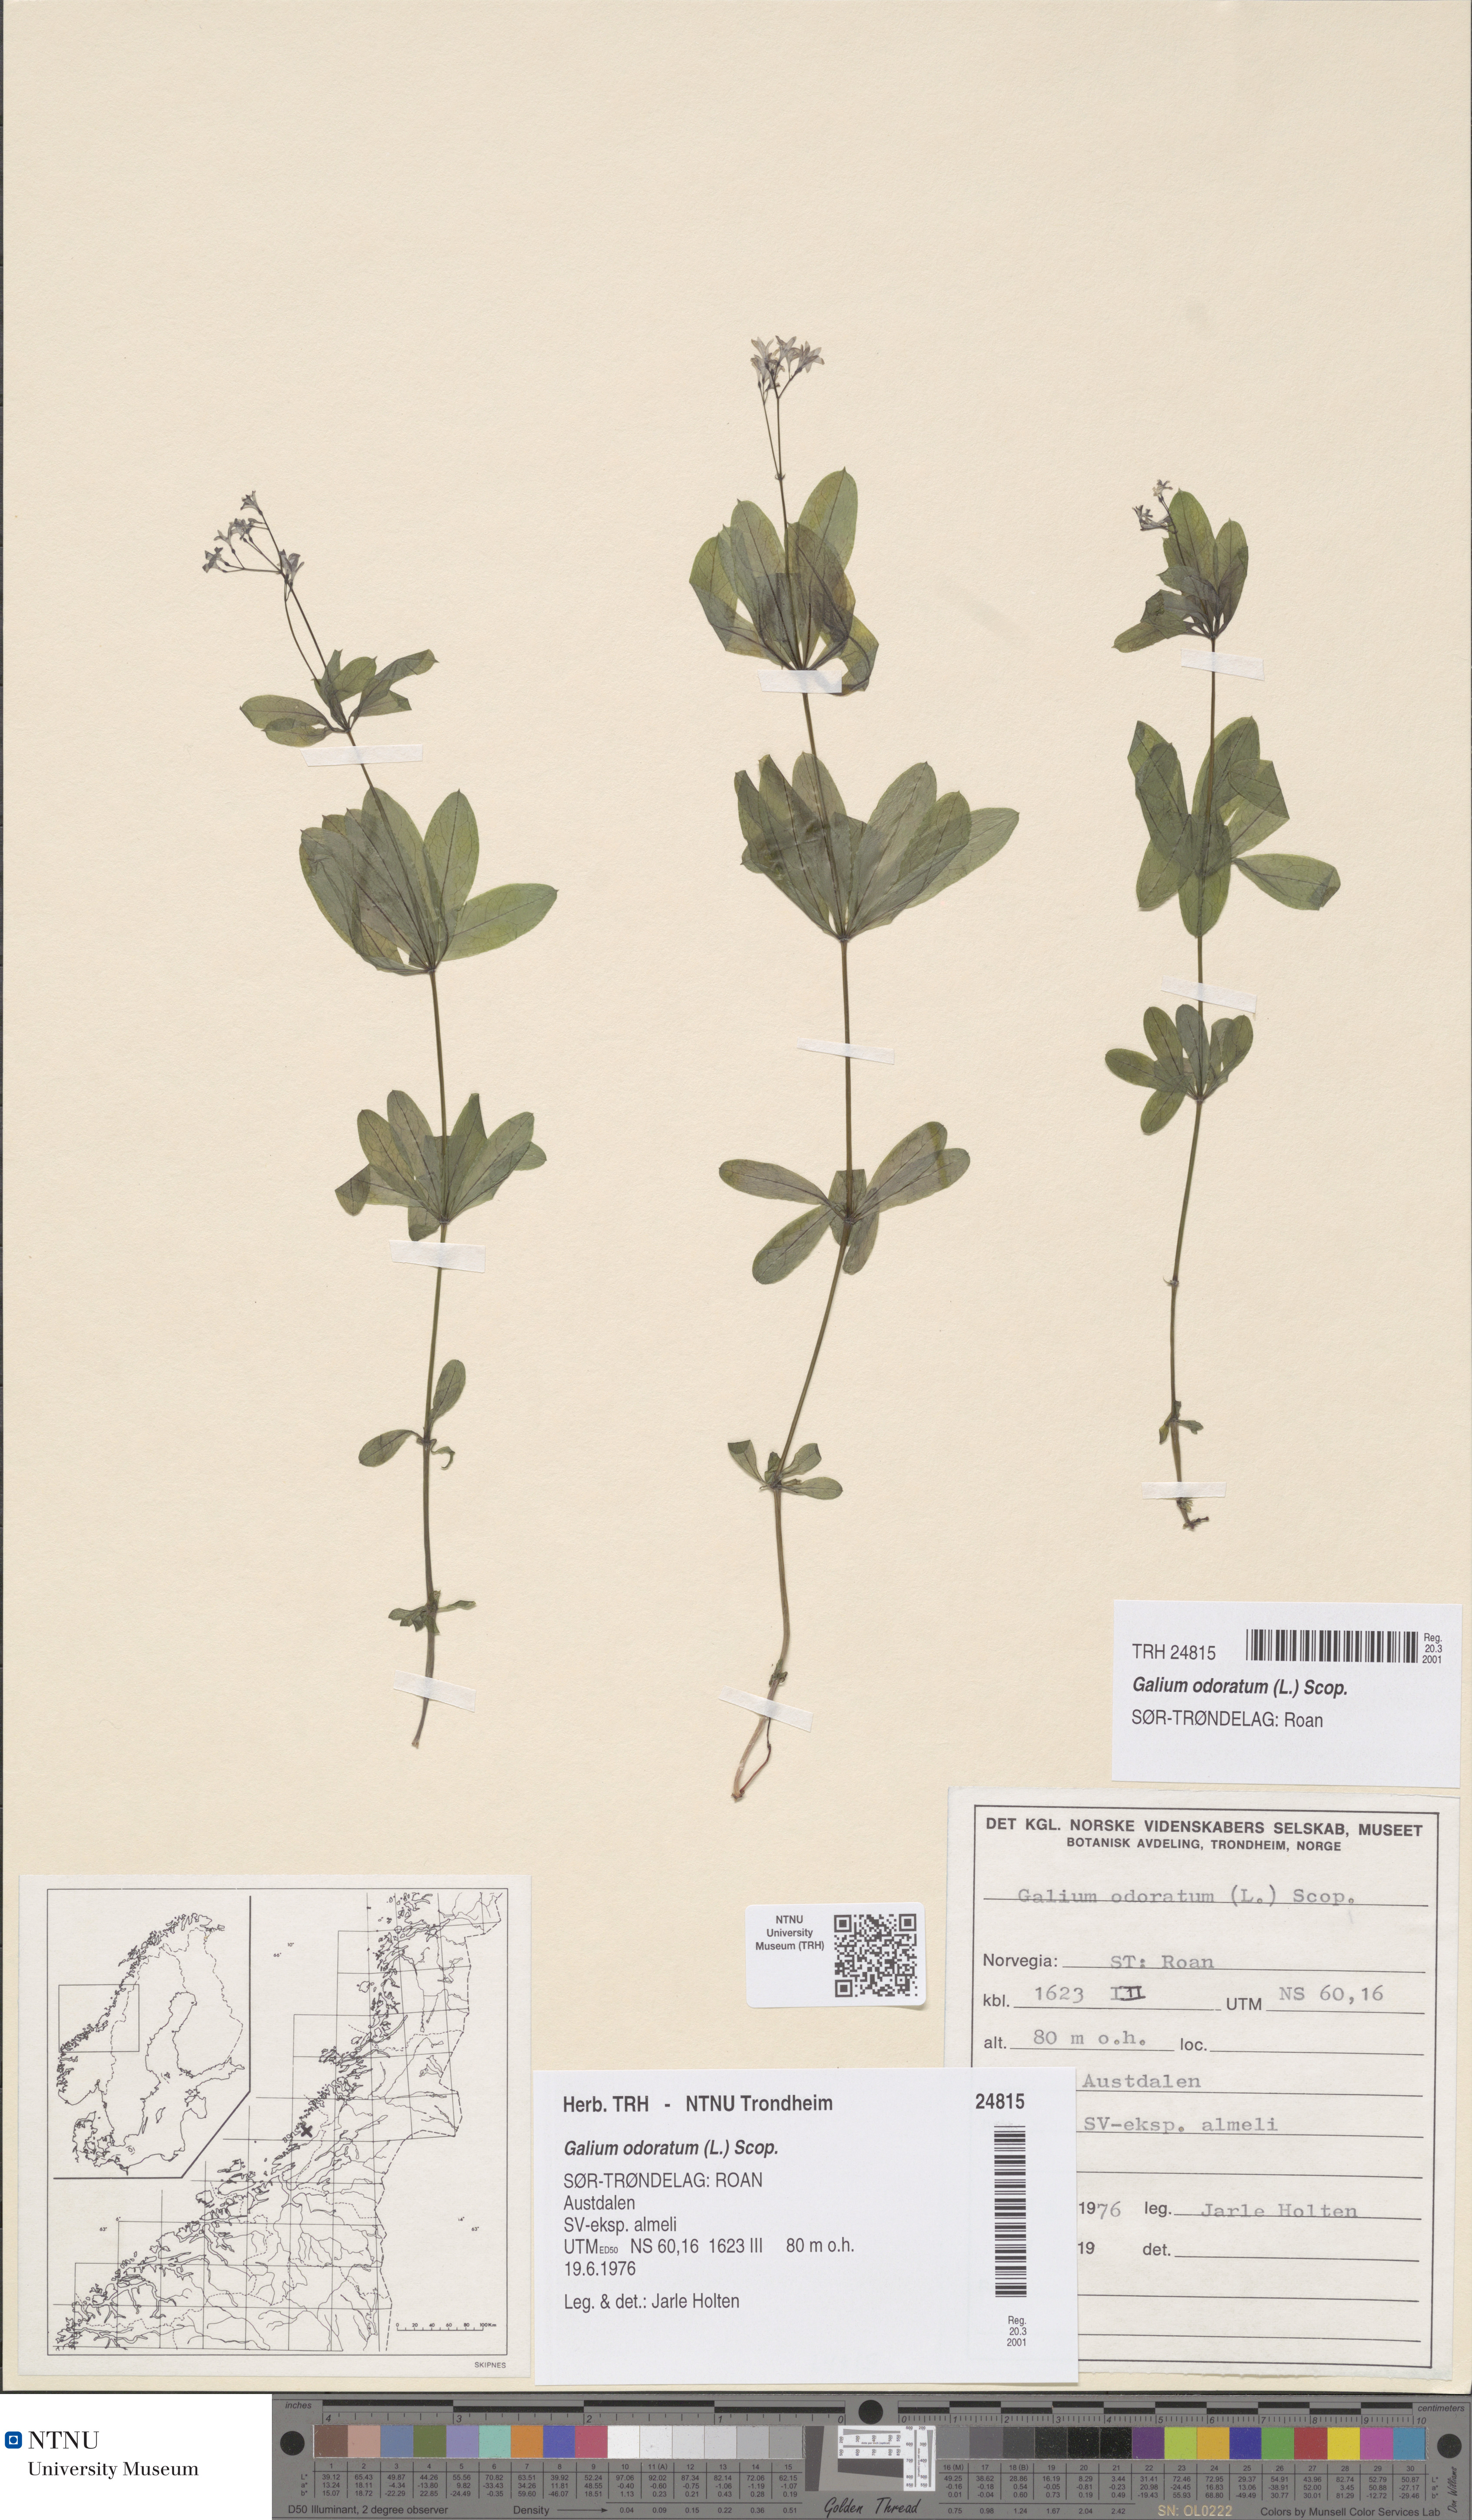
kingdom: Plantae
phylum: Tracheophyta
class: Magnoliopsida
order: Gentianales
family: Rubiaceae
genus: Galium
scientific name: Galium odoratum
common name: Sweet woodruff
